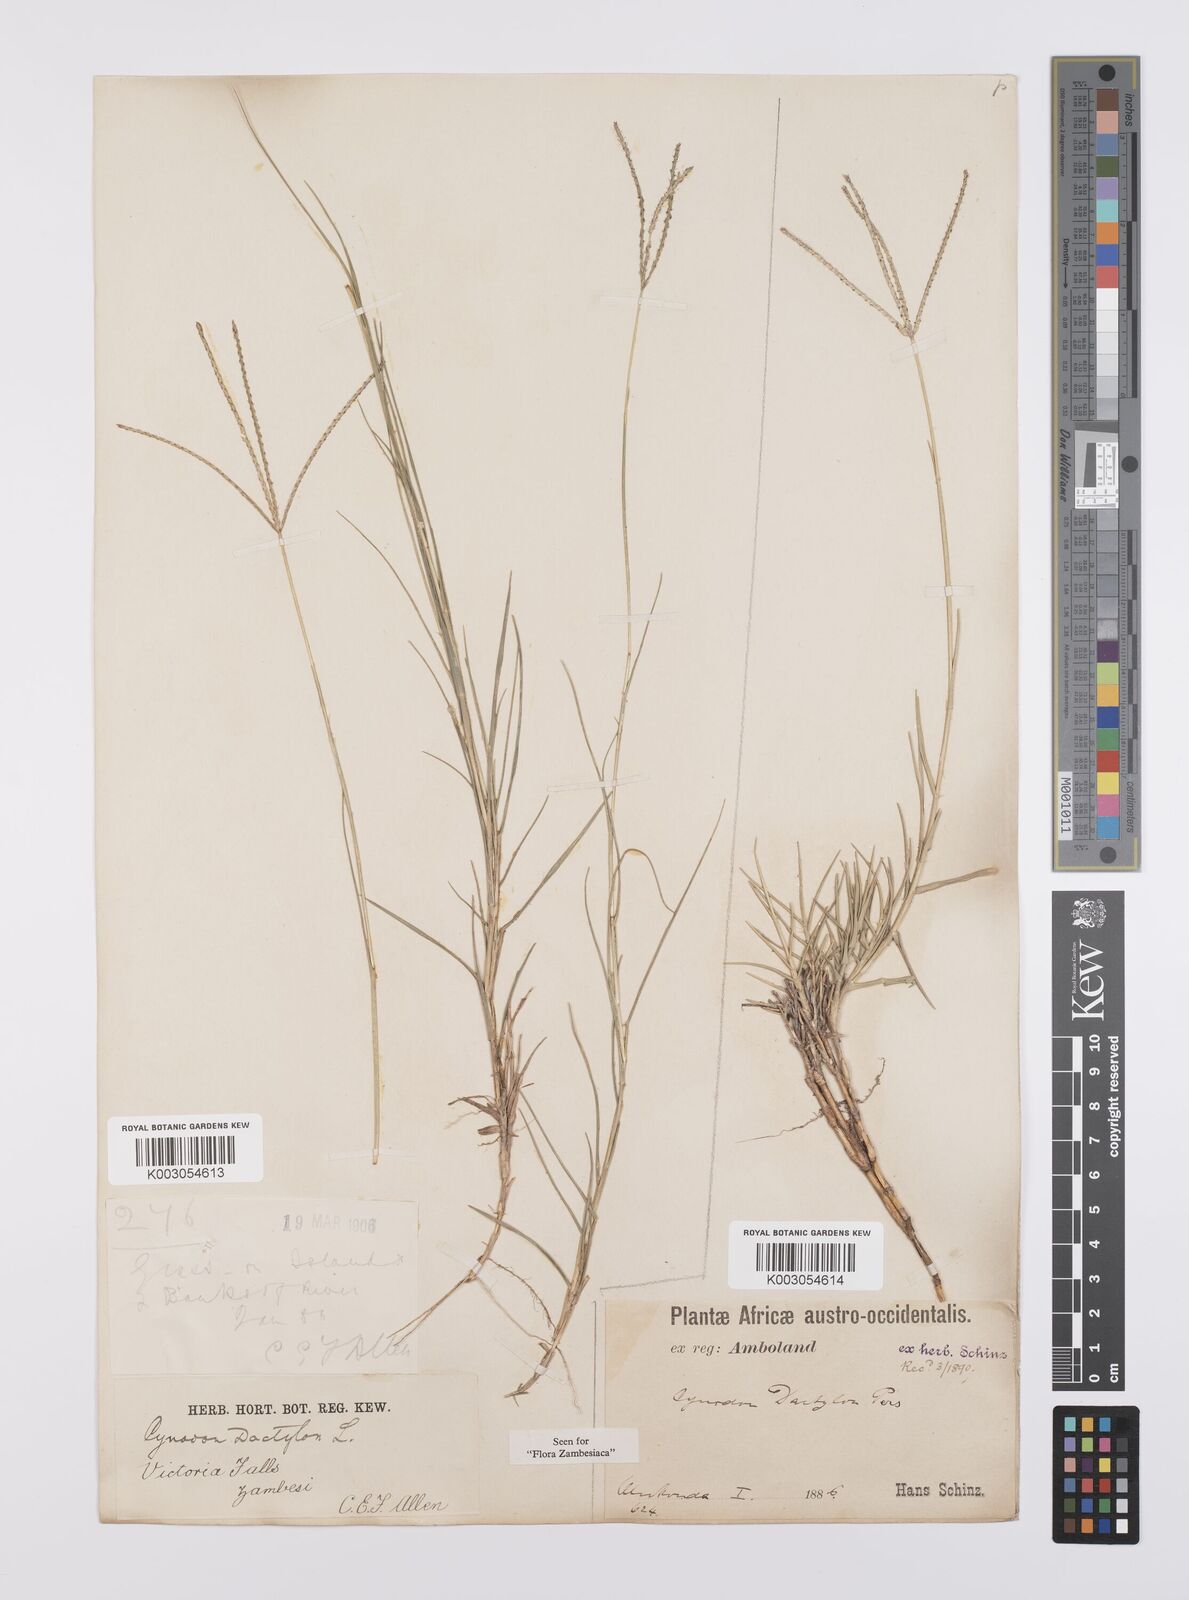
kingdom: Plantae
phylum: Tracheophyta
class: Liliopsida
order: Poales
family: Poaceae
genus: Cynodon
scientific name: Cynodon dactylon
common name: Bermuda grass
